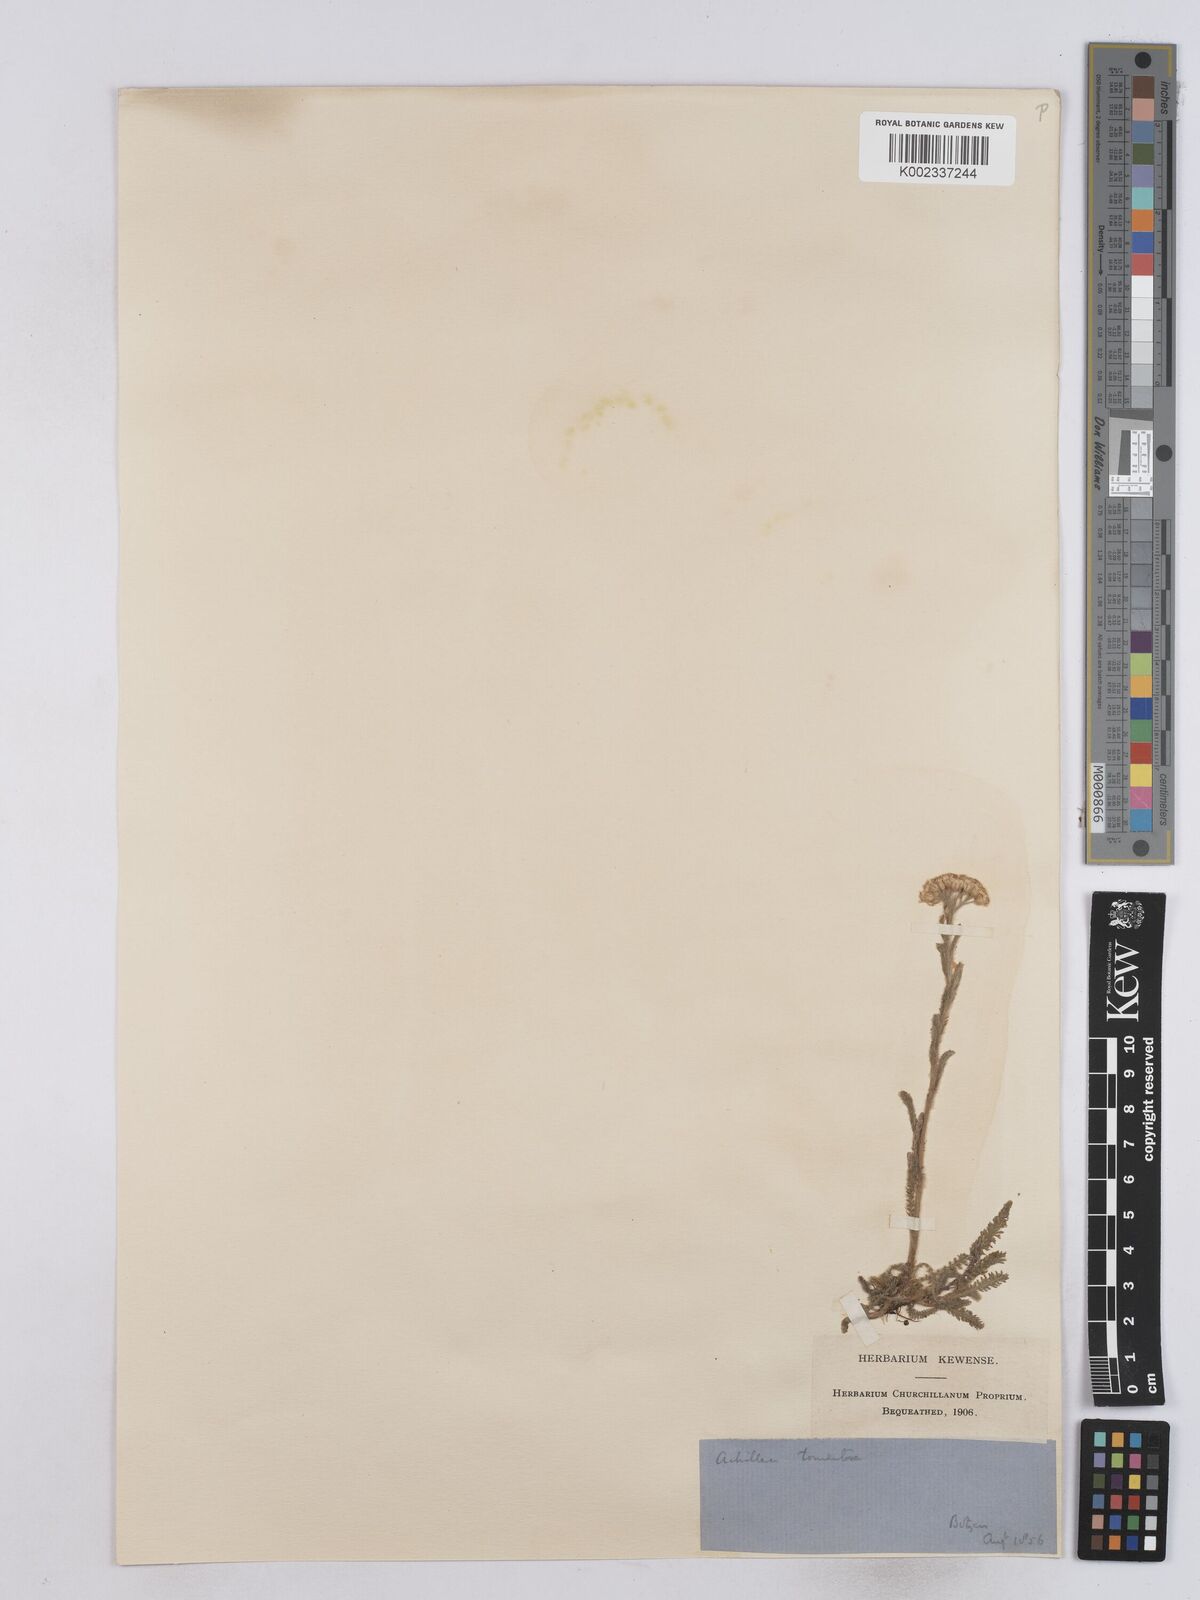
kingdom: Plantae
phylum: Tracheophyta
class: Magnoliopsida
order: Asterales
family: Asteraceae
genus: Achillea
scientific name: Achillea tomentosa
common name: Yellow milfoil
